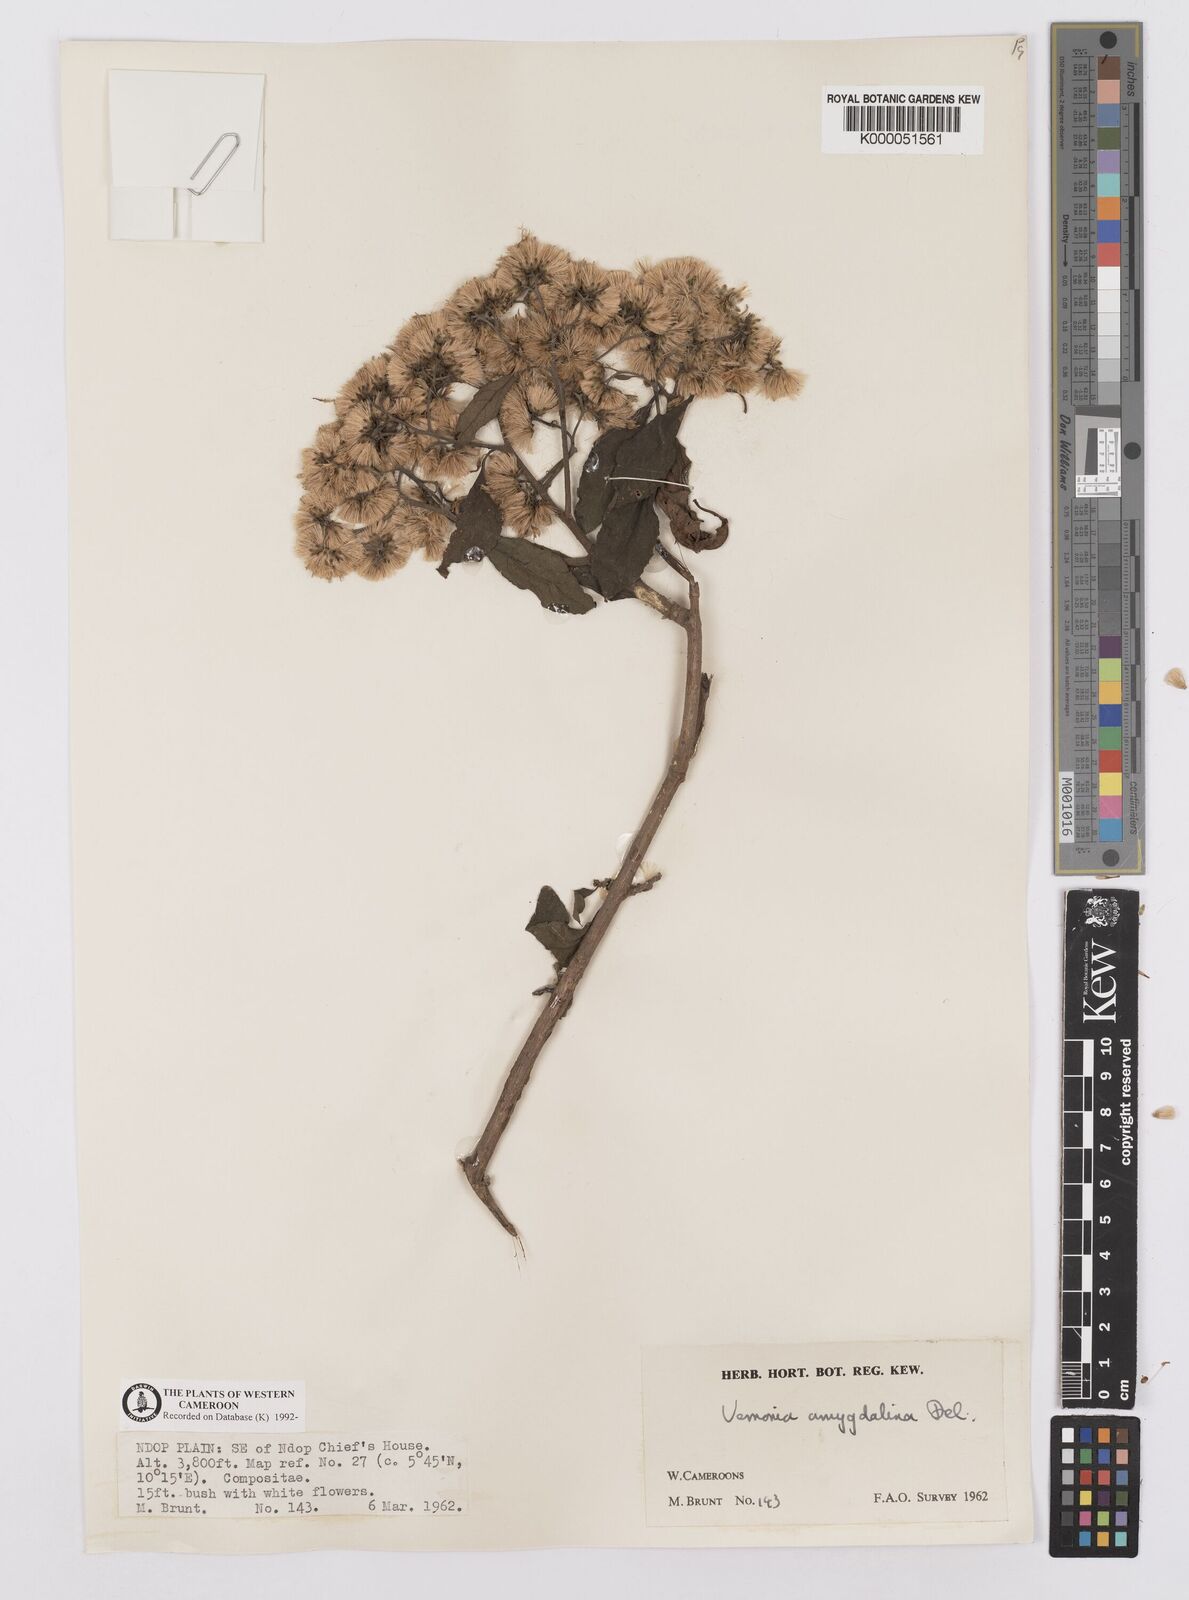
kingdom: Plantae
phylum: Tracheophyta
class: Magnoliopsida
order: Asterales
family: Asteraceae
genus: Gymnanthemum
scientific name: Gymnanthemum amygdalinum
